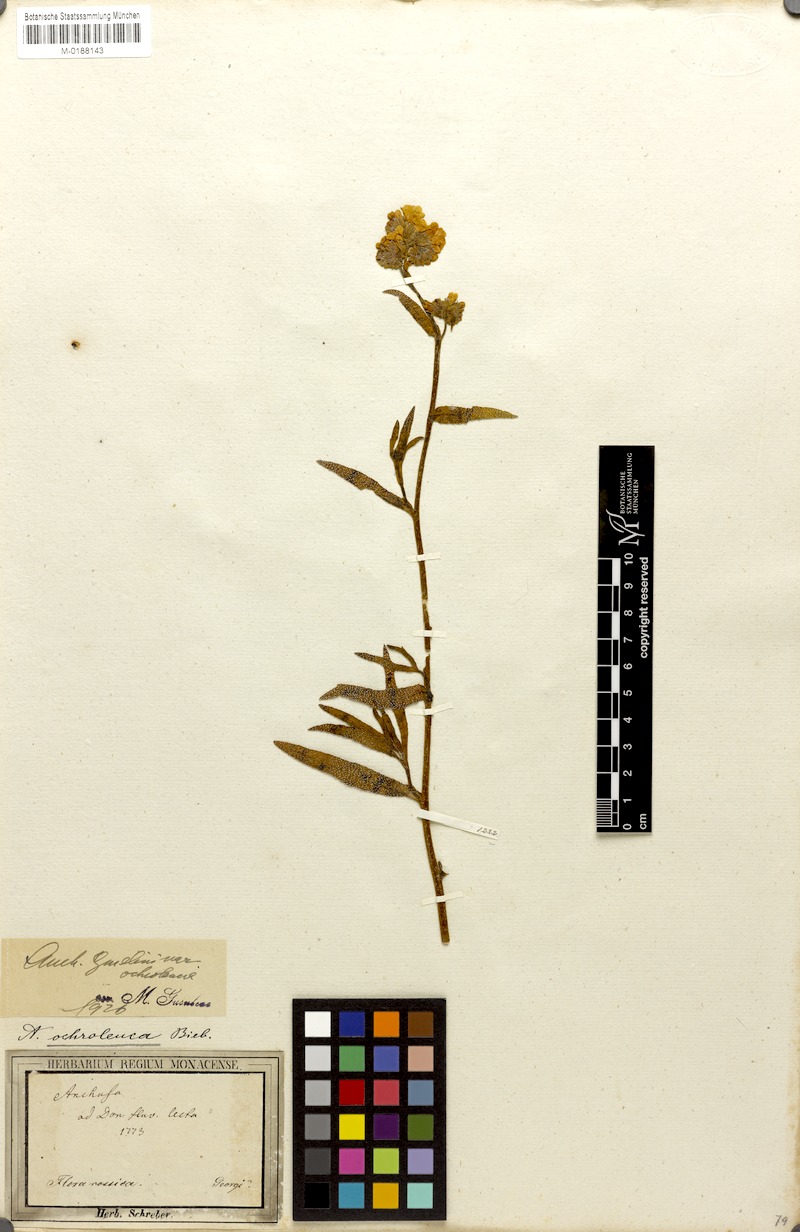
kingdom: Plantae
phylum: Tracheophyta
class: Magnoliopsida
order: Boraginales
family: Boraginaceae
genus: Anchusa
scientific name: Anchusa ochroleuca
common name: Yellow alkanet
